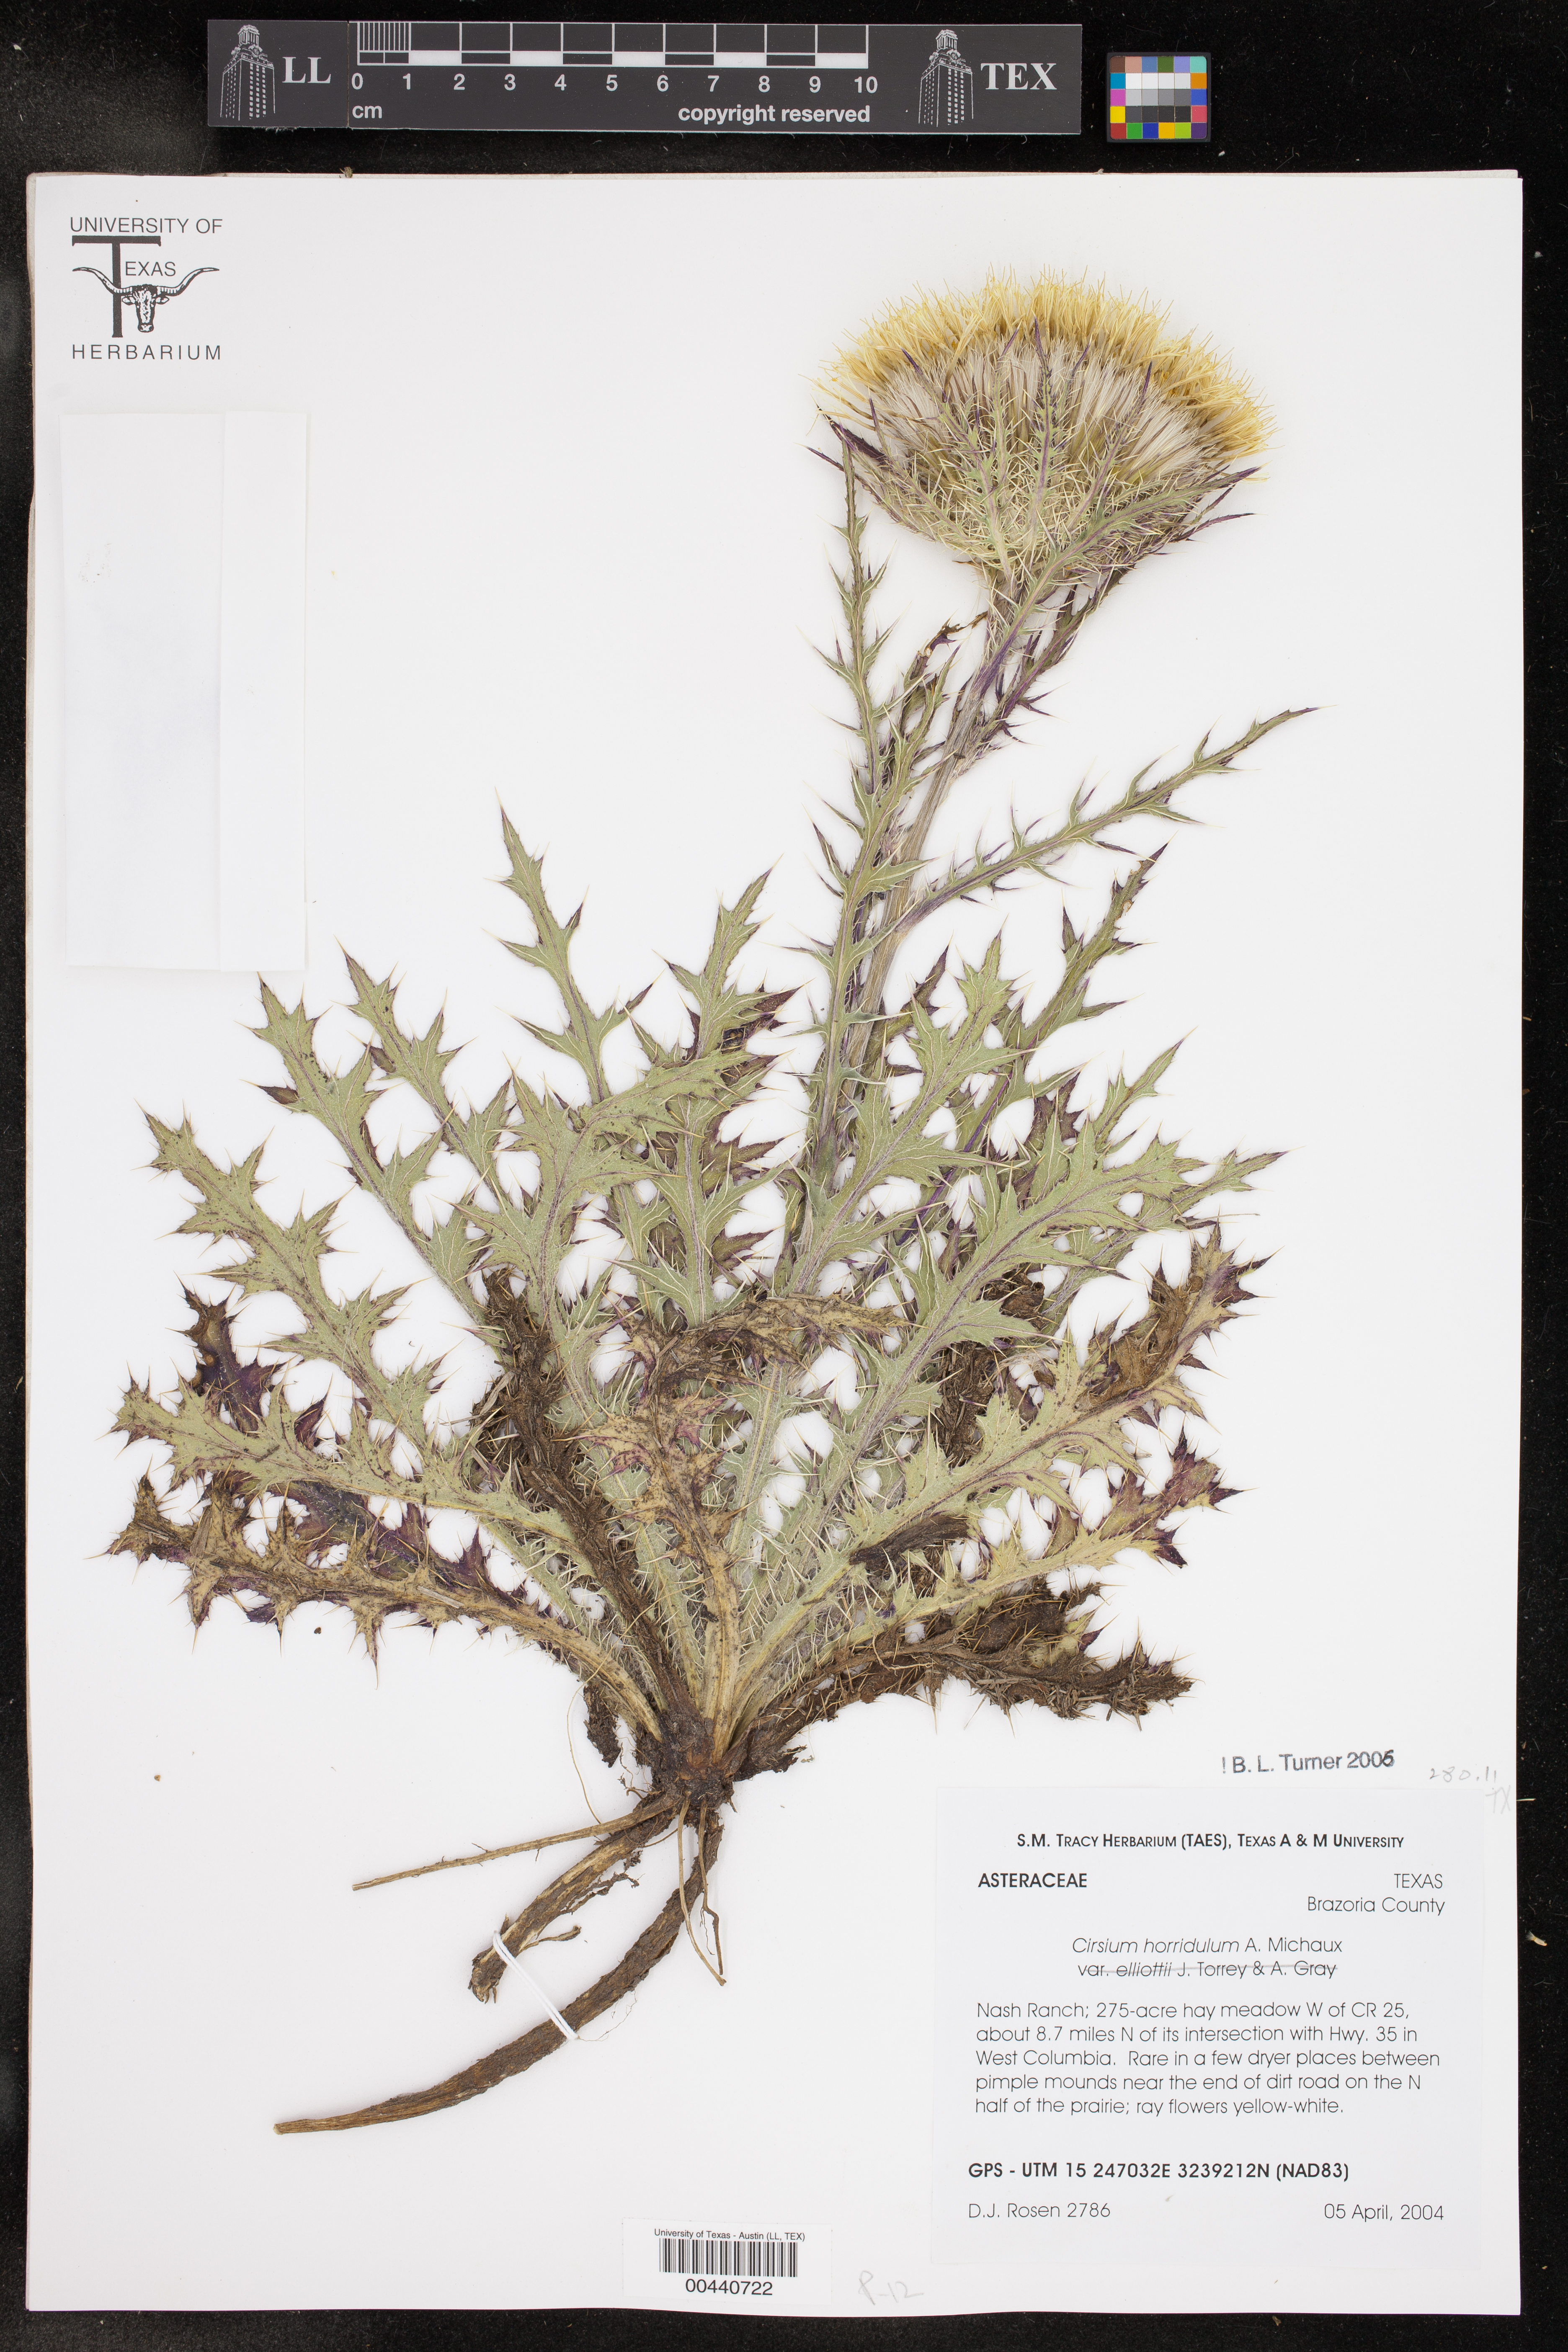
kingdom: Plantae
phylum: Tracheophyta
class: Magnoliopsida
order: Asterales
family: Asteraceae
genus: Cirsium
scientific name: Cirsium horridulum
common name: Bristly thistle
